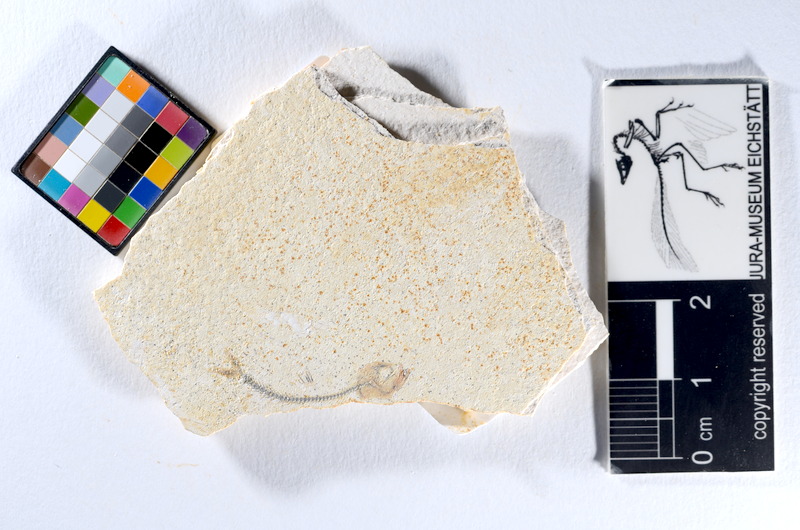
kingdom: Animalia
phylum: Chordata
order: Salmoniformes
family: Orthogonikleithridae
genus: Orthogonikleithrus
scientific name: Orthogonikleithrus hoelli
